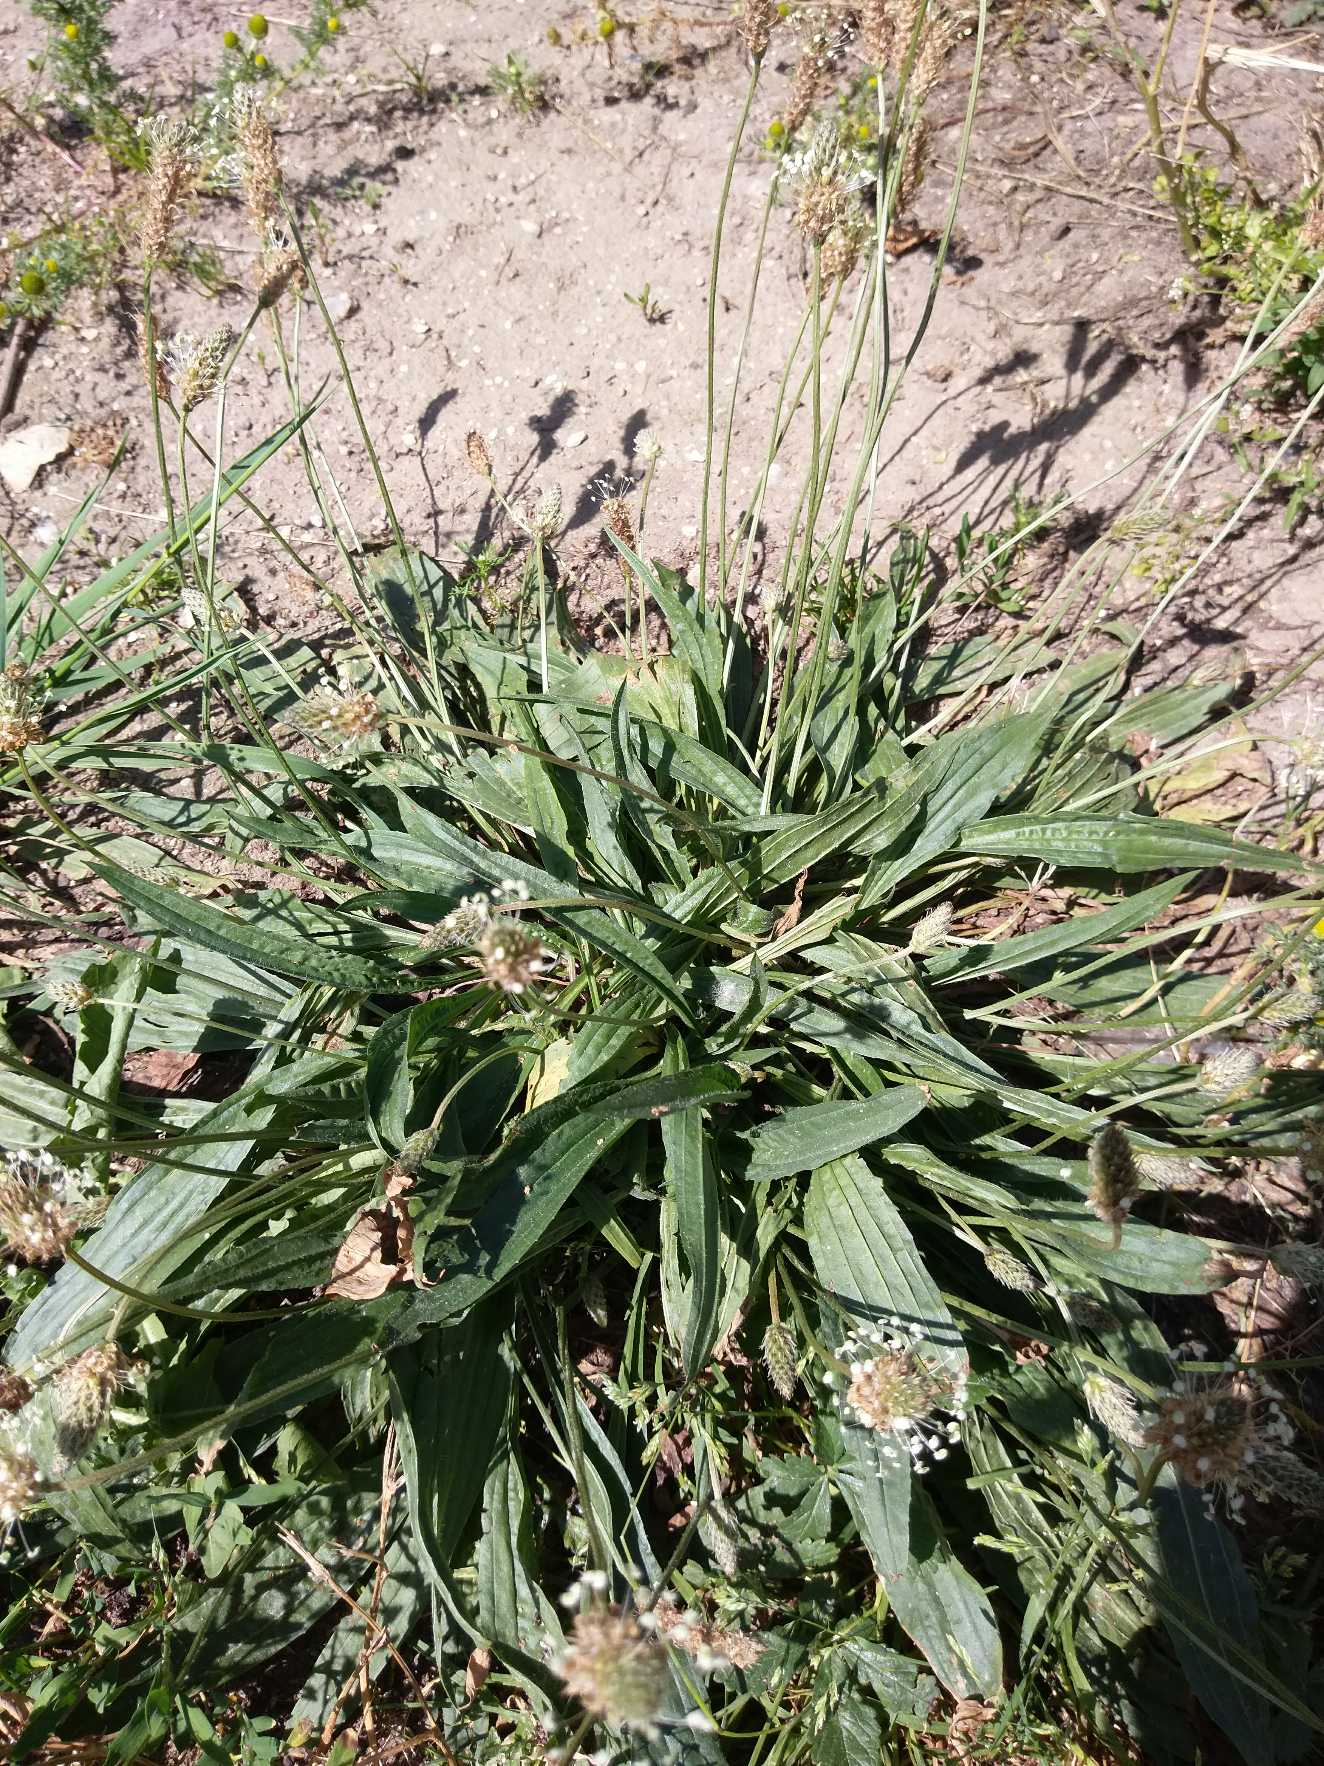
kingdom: Plantae
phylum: Tracheophyta
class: Magnoliopsida
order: Lamiales
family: Plantaginaceae
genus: Plantago
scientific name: Plantago lanceolata
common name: Lancet-vejbred
